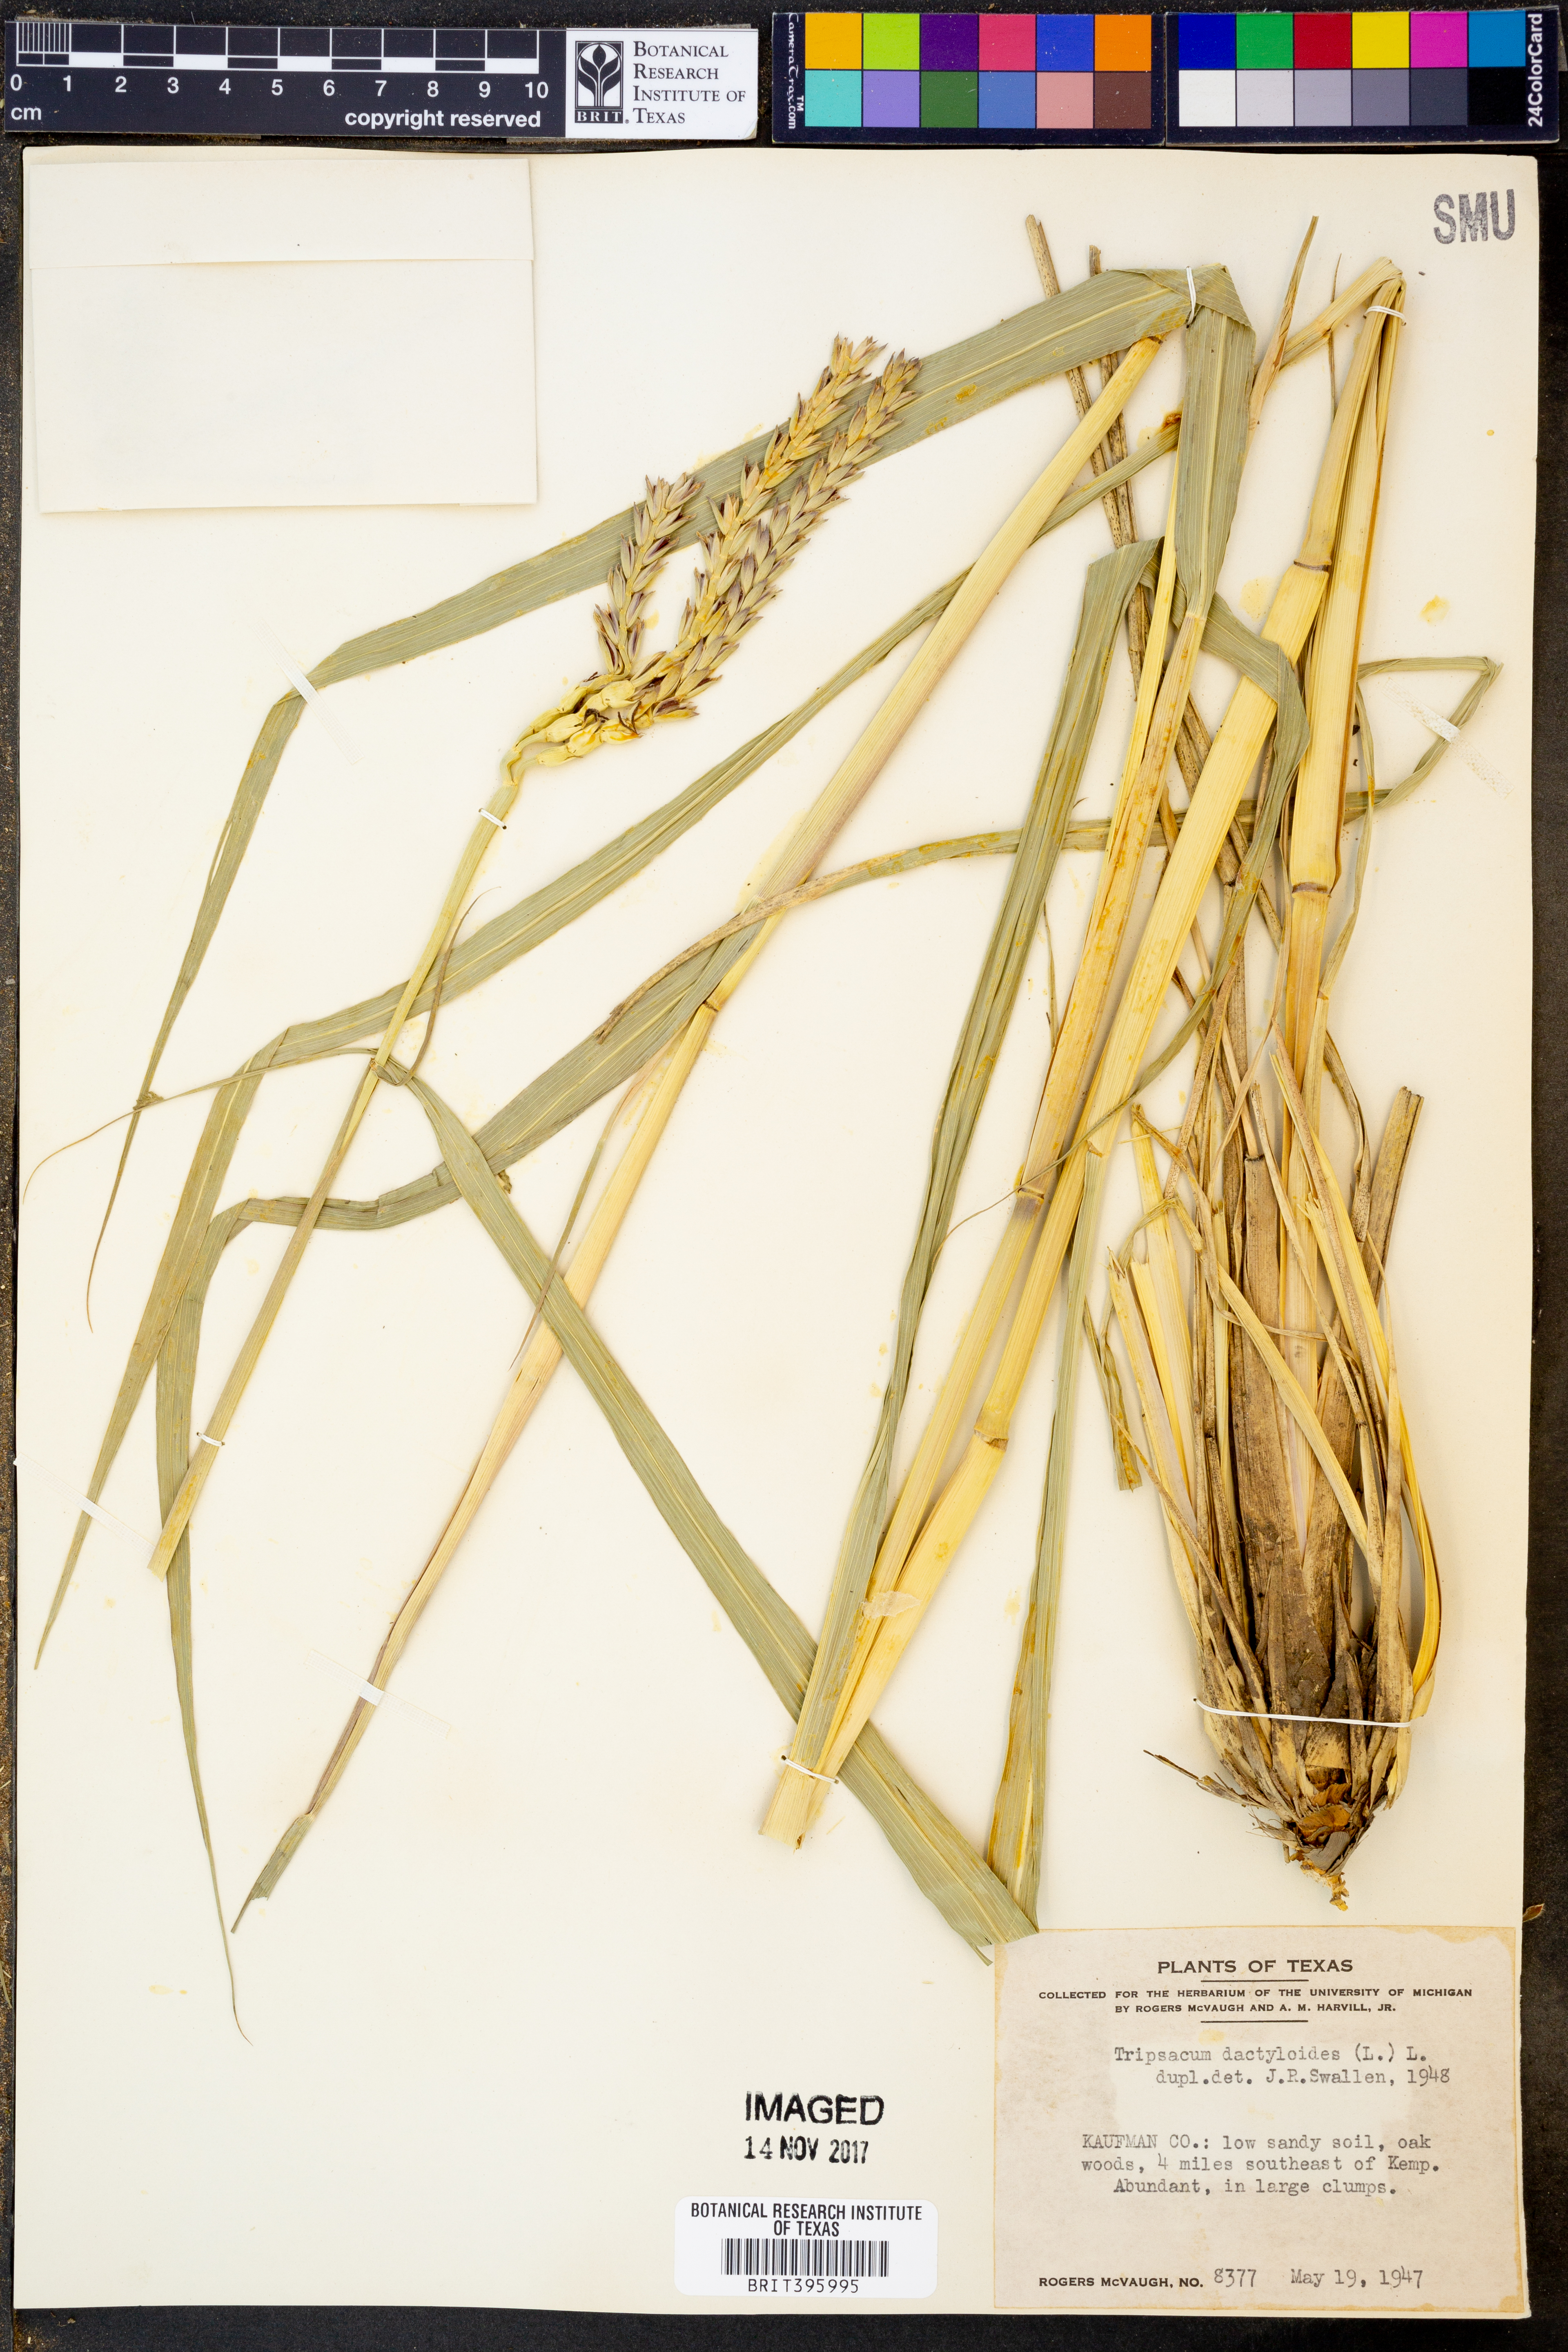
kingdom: Plantae
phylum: Tracheophyta
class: Liliopsida
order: Poales
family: Poaceae
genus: Tripsacum
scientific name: Tripsacum dactyloides
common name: Buffalo-grass
